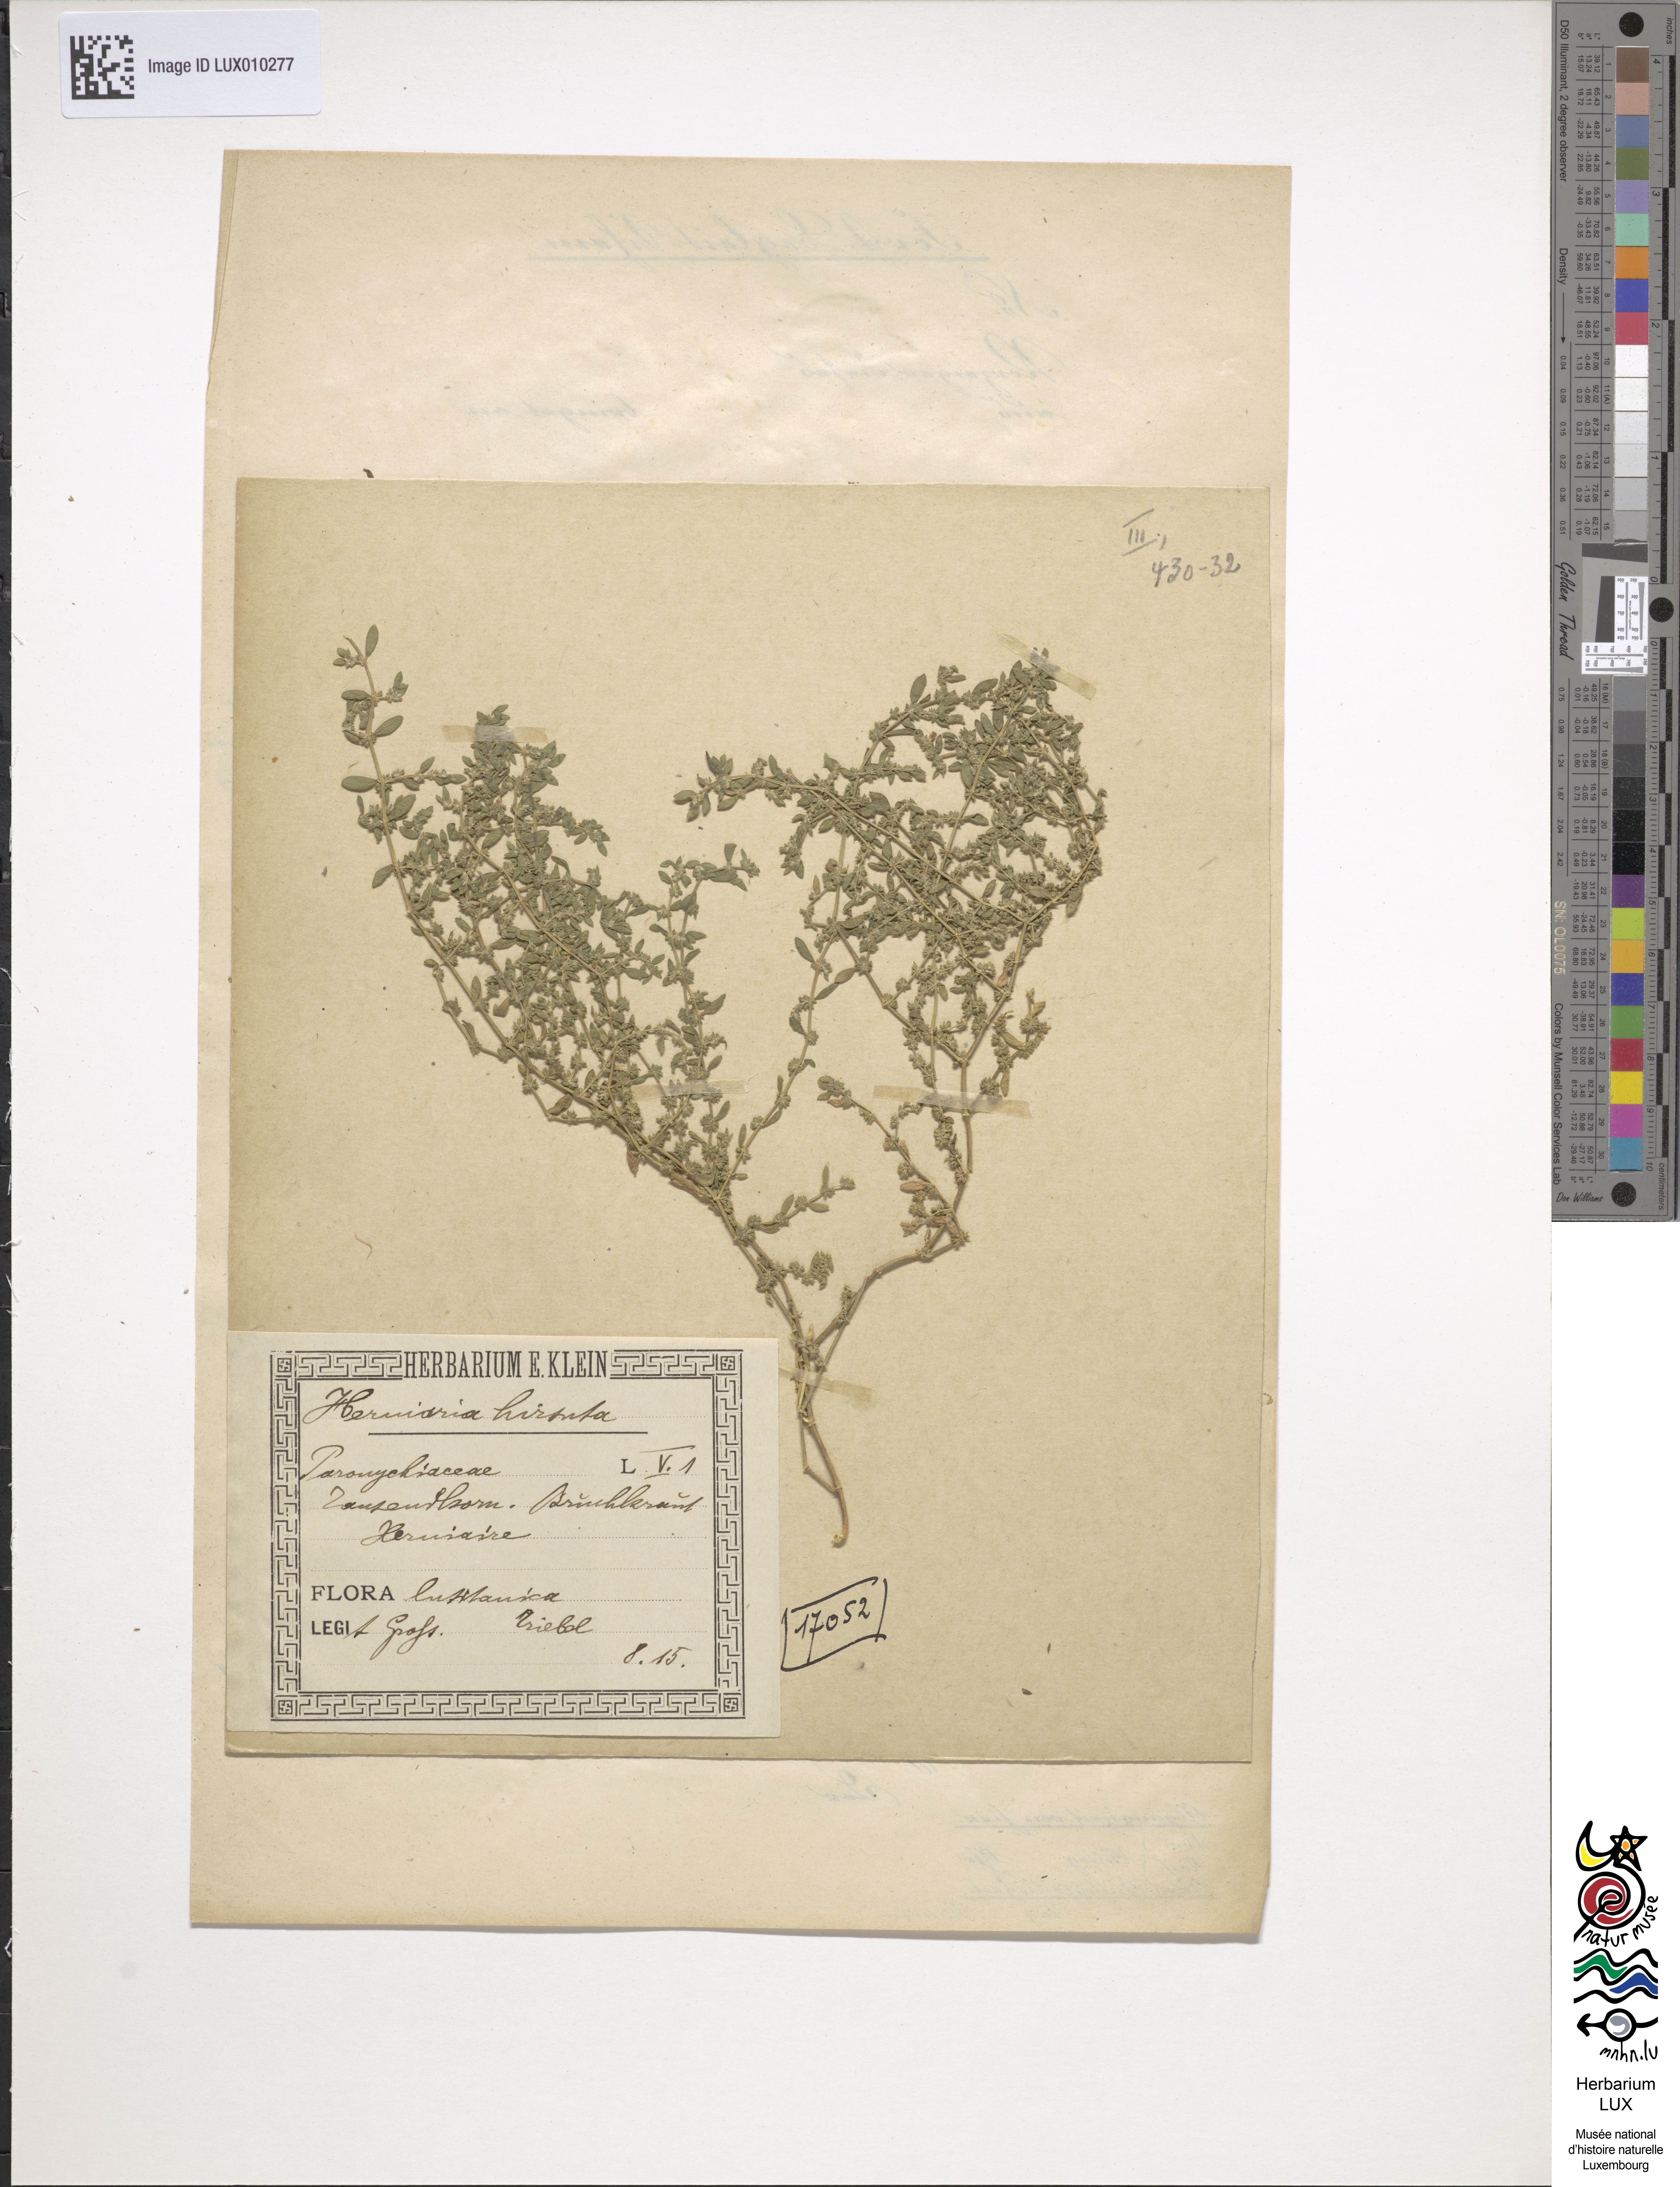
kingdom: Plantae
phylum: Tracheophyta
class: Magnoliopsida
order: Caryophyllales
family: Caryophyllaceae
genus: Herniaria
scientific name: Herniaria hirsuta
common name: Hairy rupturewort
